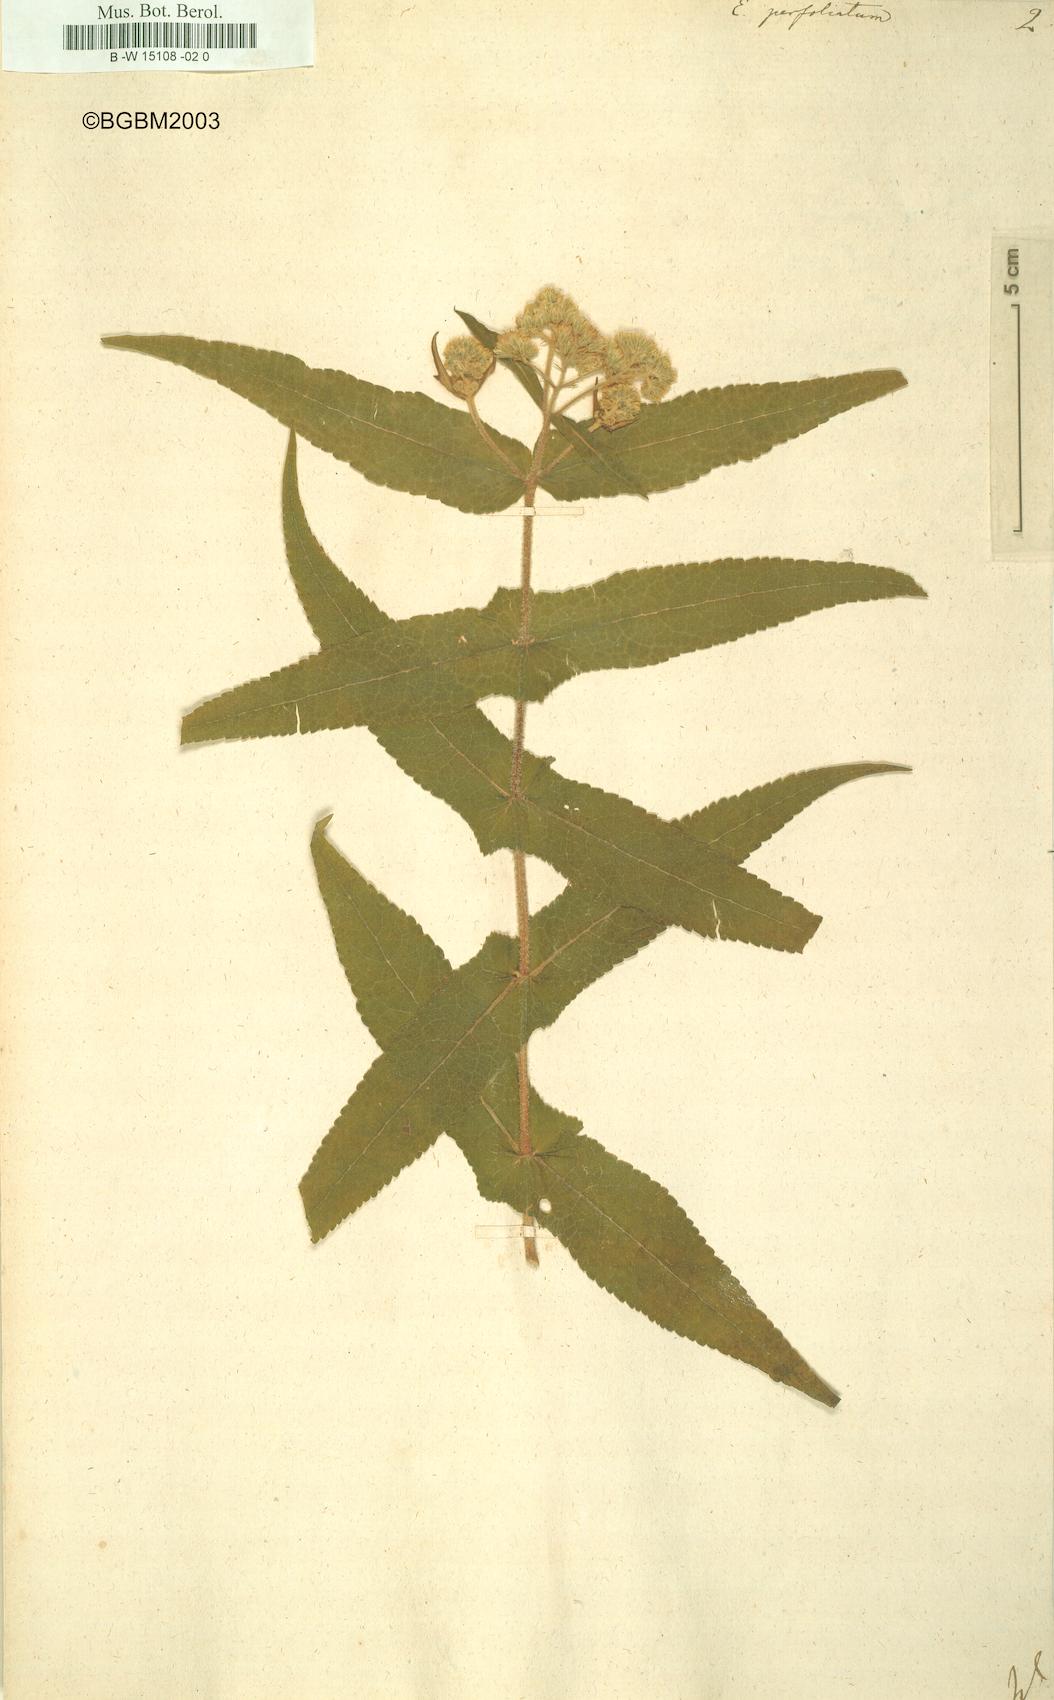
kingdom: Plantae
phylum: Tracheophyta
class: Magnoliopsida
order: Asterales
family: Asteraceae
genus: Eupatorium
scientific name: Eupatorium perfoliatum
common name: Boneset
